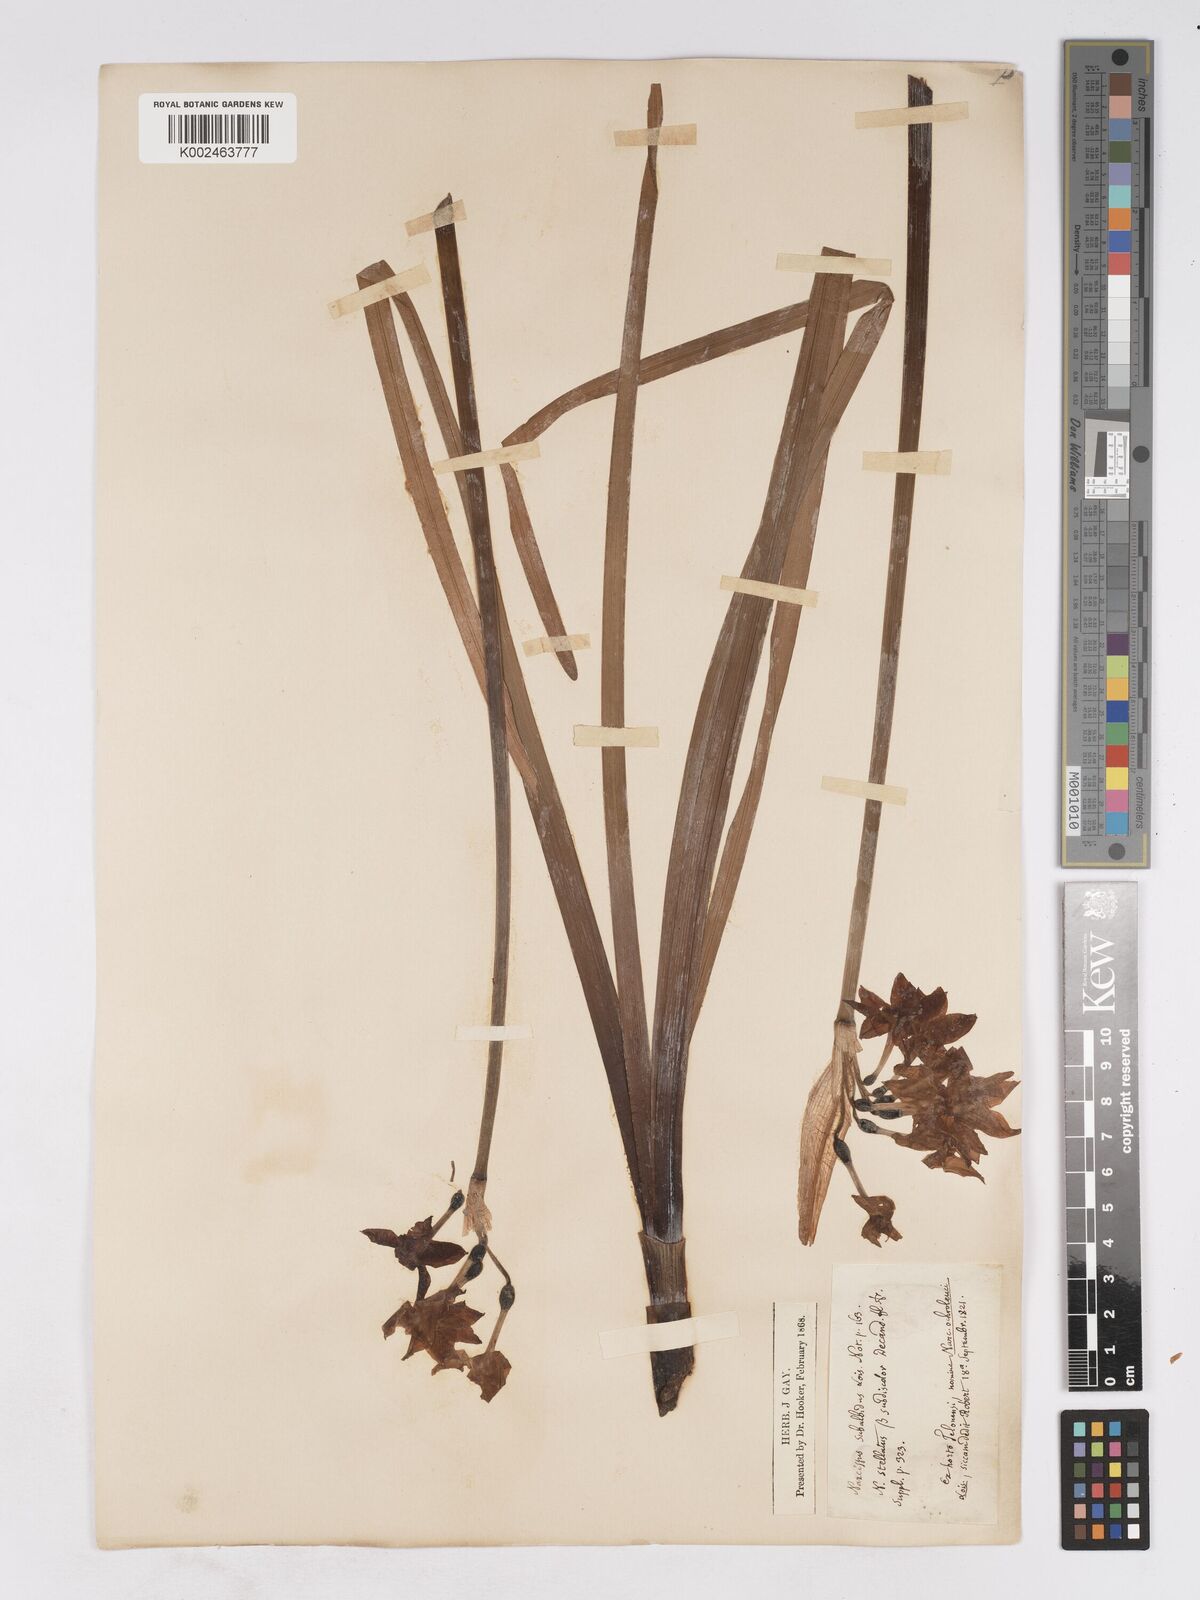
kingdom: Plantae
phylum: Tracheophyta
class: Liliopsida
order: Asparagales
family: Amaryllidaceae
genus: Narcissus
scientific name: Narcissus
